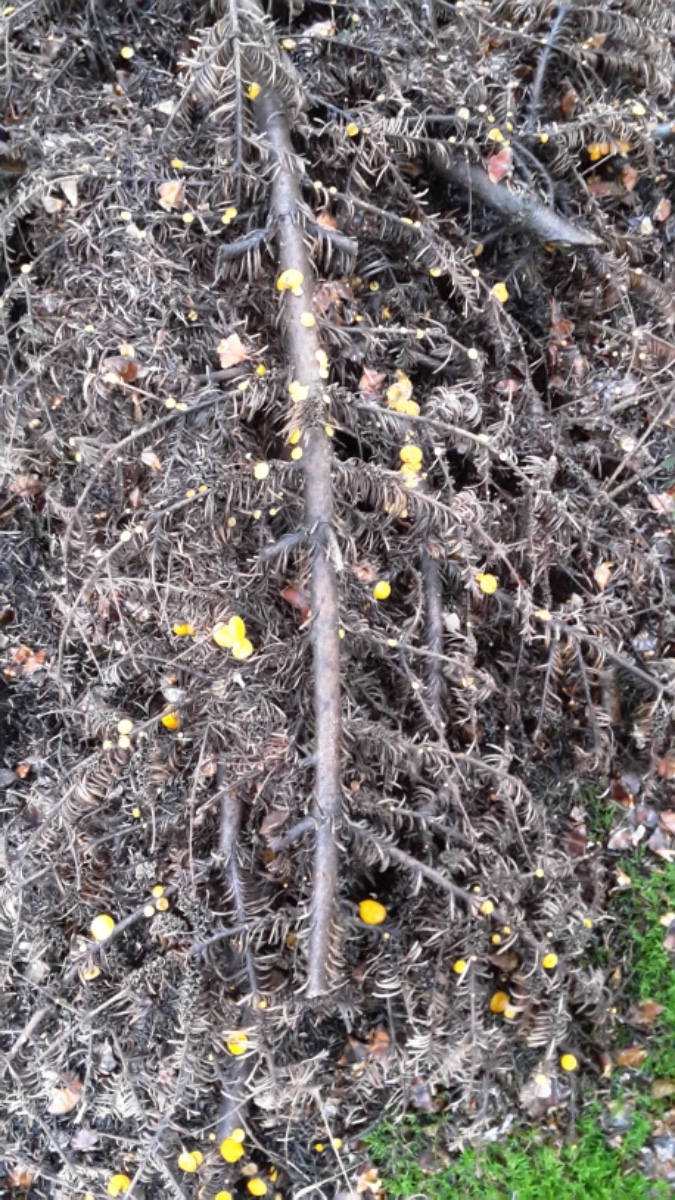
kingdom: Fungi
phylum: Ascomycota
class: Pezizomycetes
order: Pezizales
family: Sarcoscyphaceae
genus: Pithya
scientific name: Pithya vulgaris
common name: stor dukatbæger
